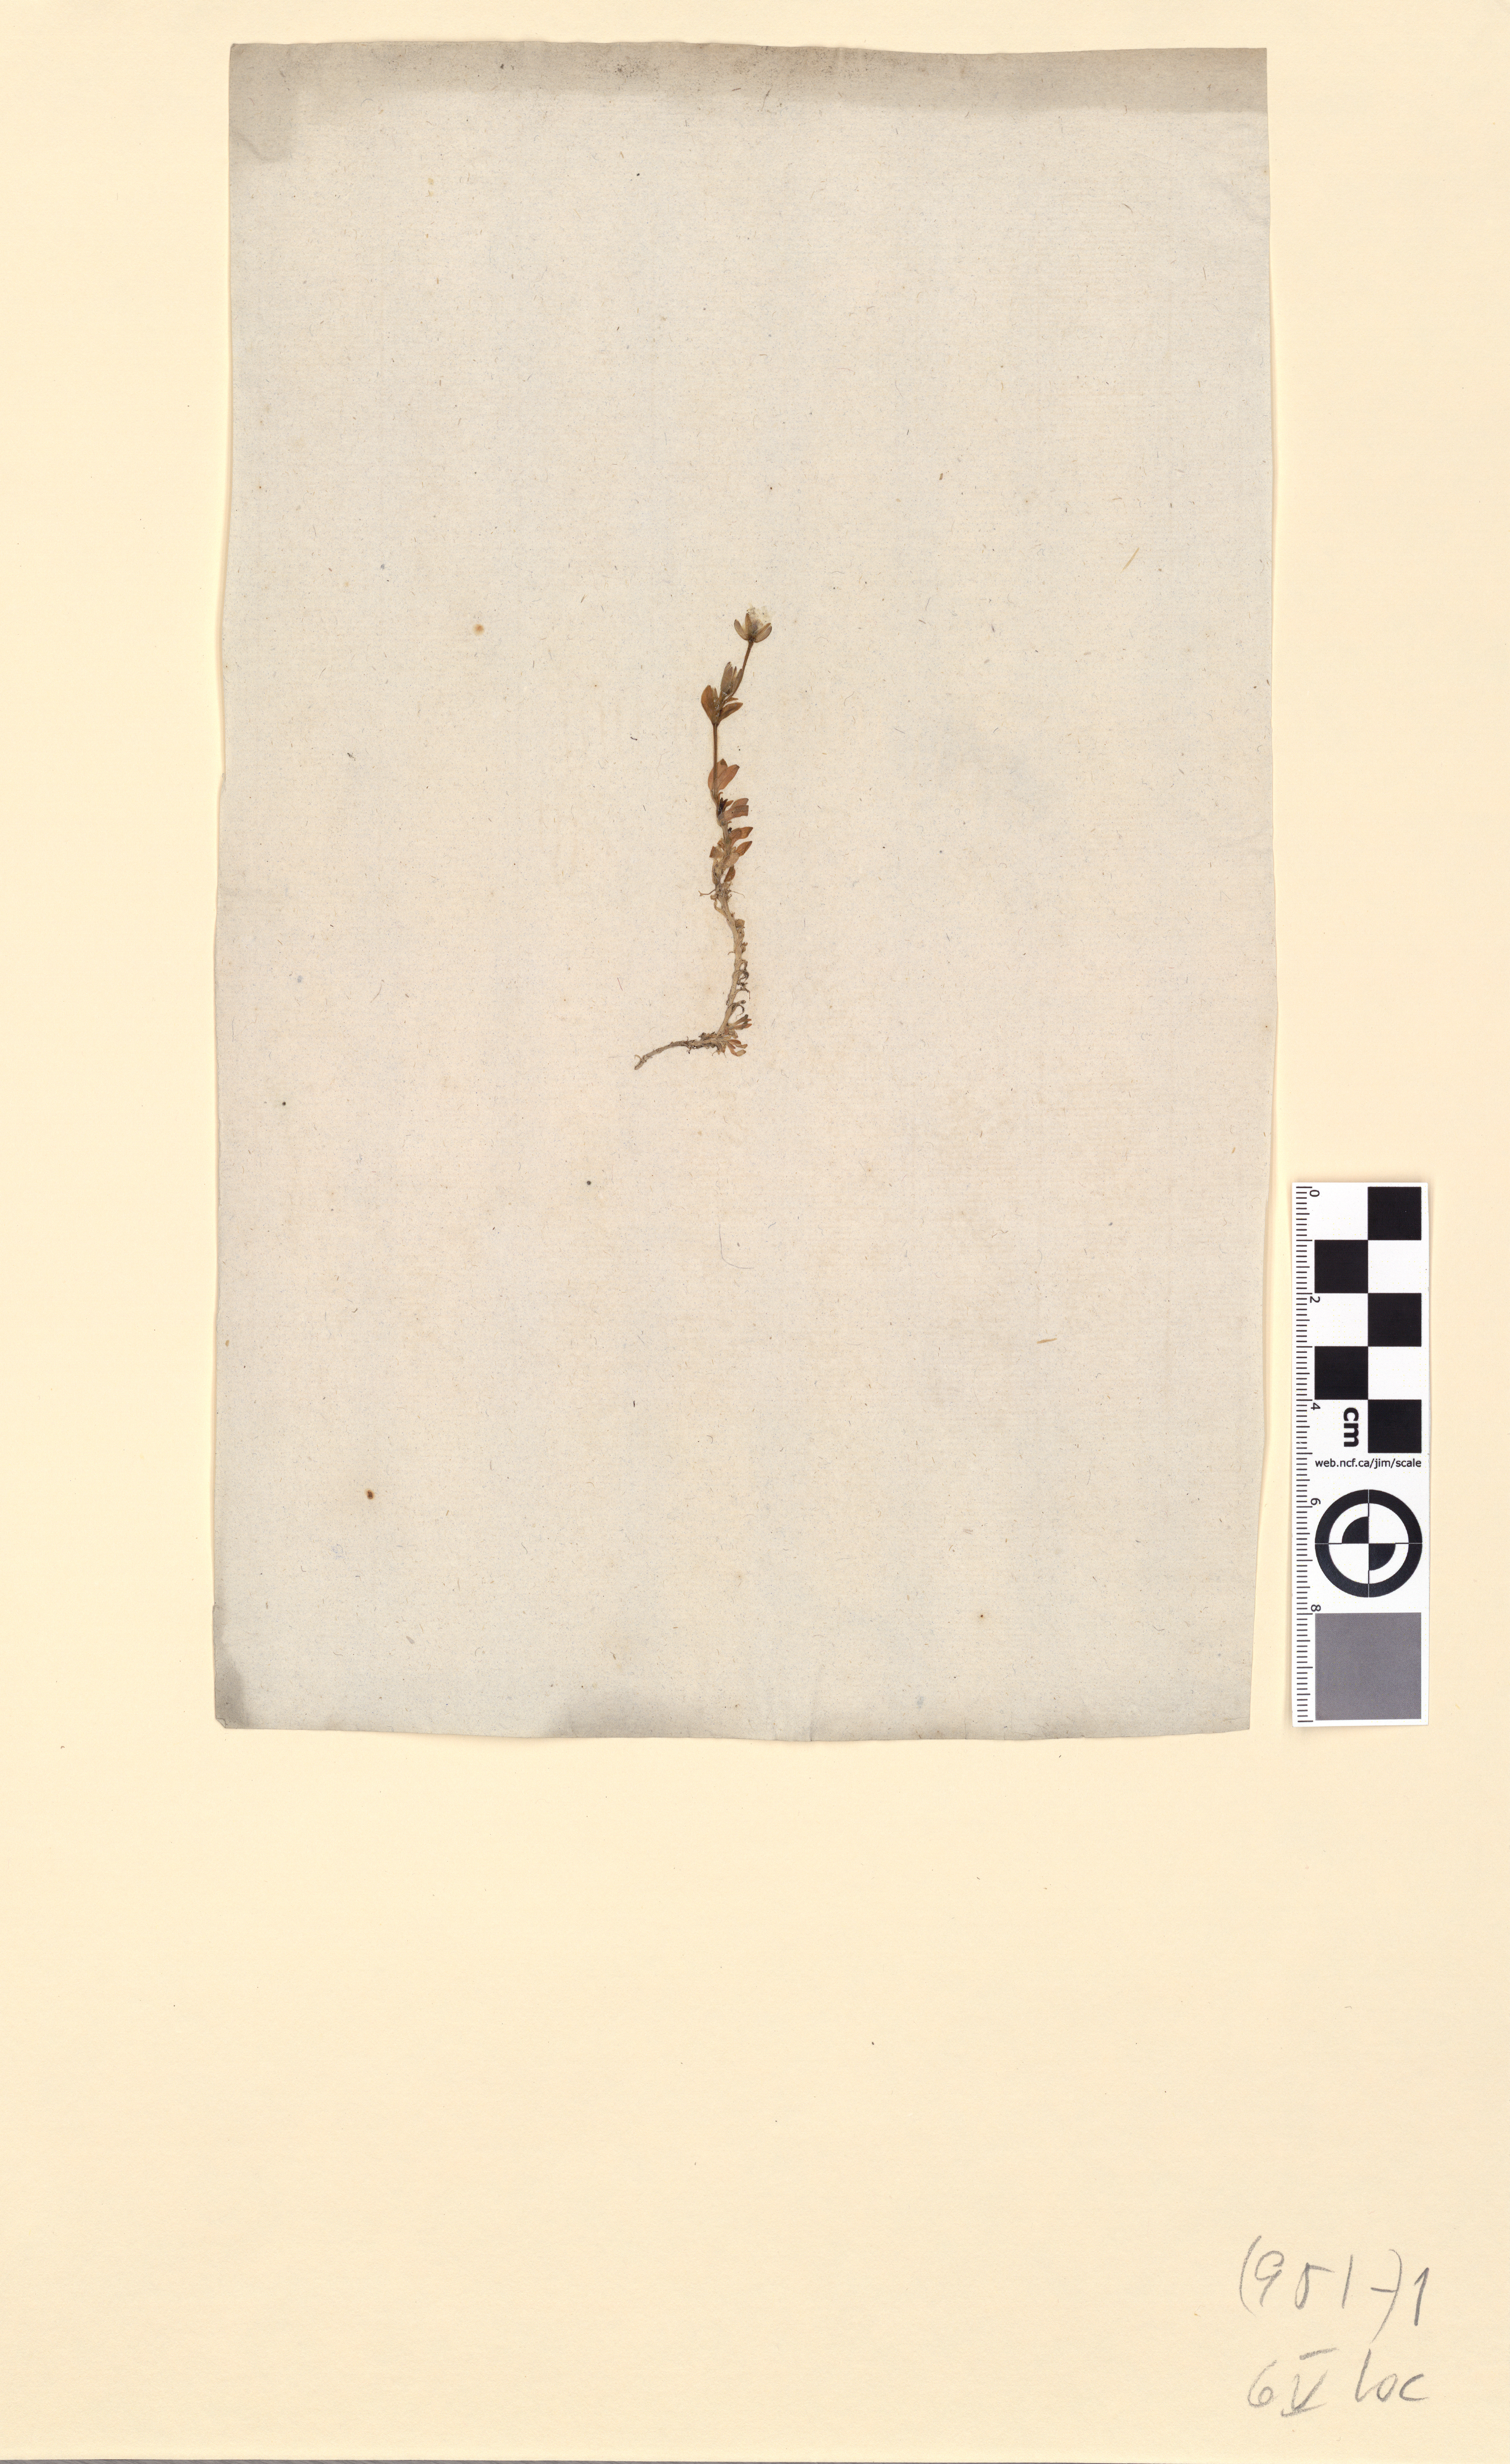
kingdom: Plantae
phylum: Tracheophyta
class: Magnoliopsida
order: Caryophyllales
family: Caryophyllaceae
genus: Dichodon
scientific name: Dichodon cerastoides
